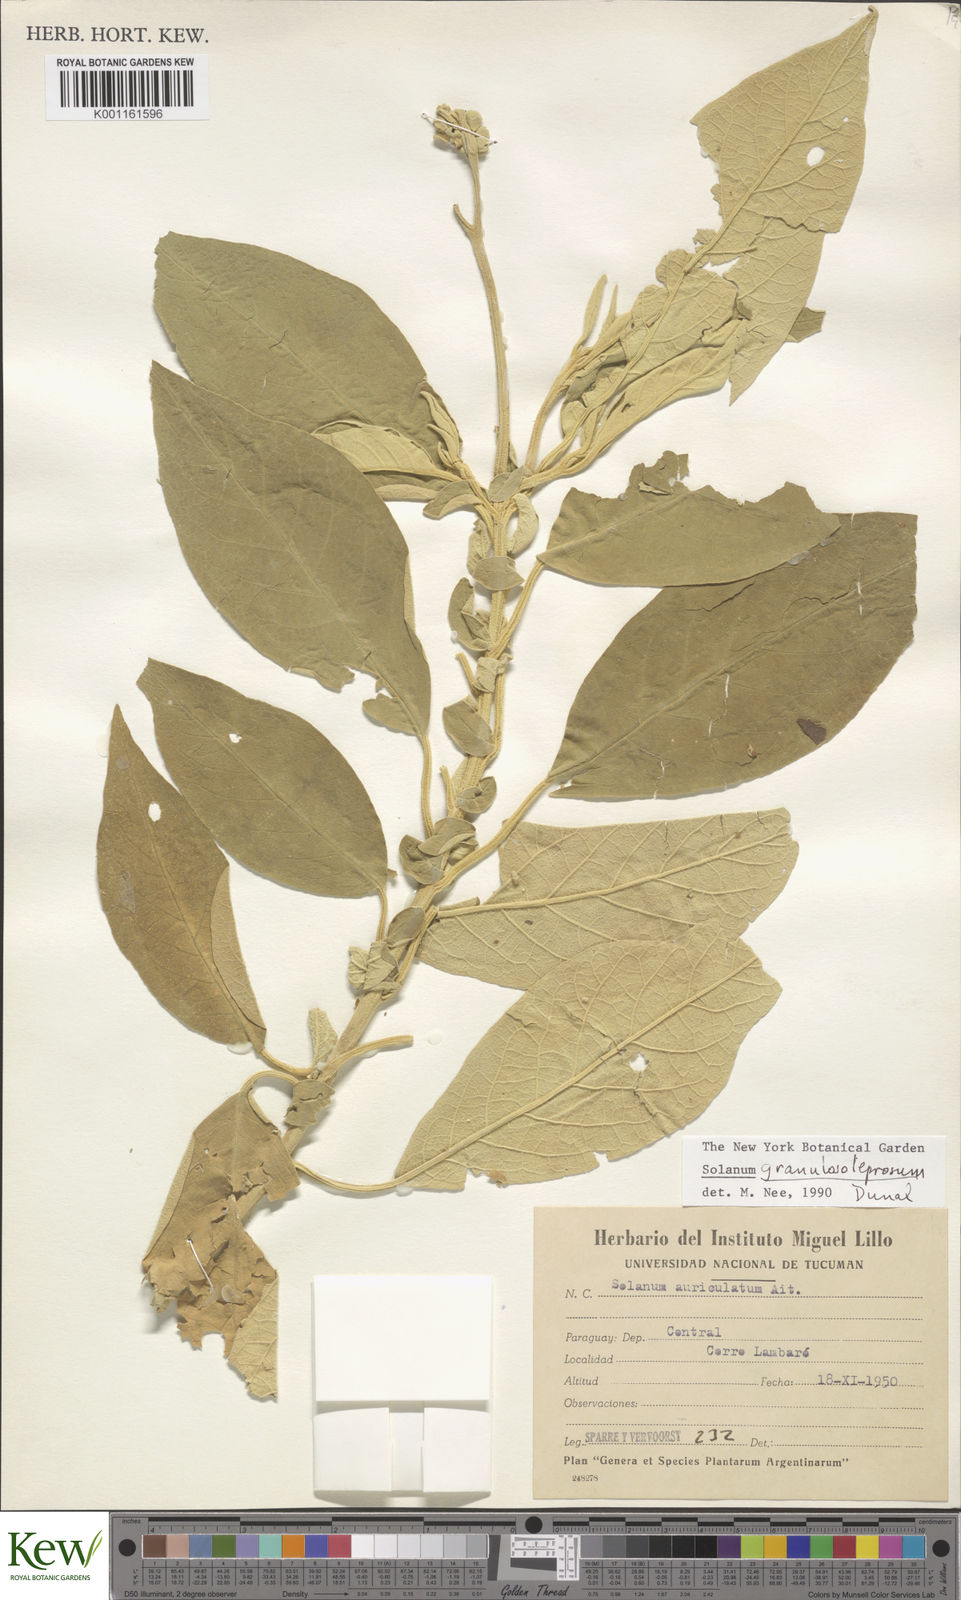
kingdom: Plantae
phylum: Tracheophyta
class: Magnoliopsida
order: Solanales
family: Solanaceae
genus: Solanum
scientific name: Solanum granulosoleprosum
